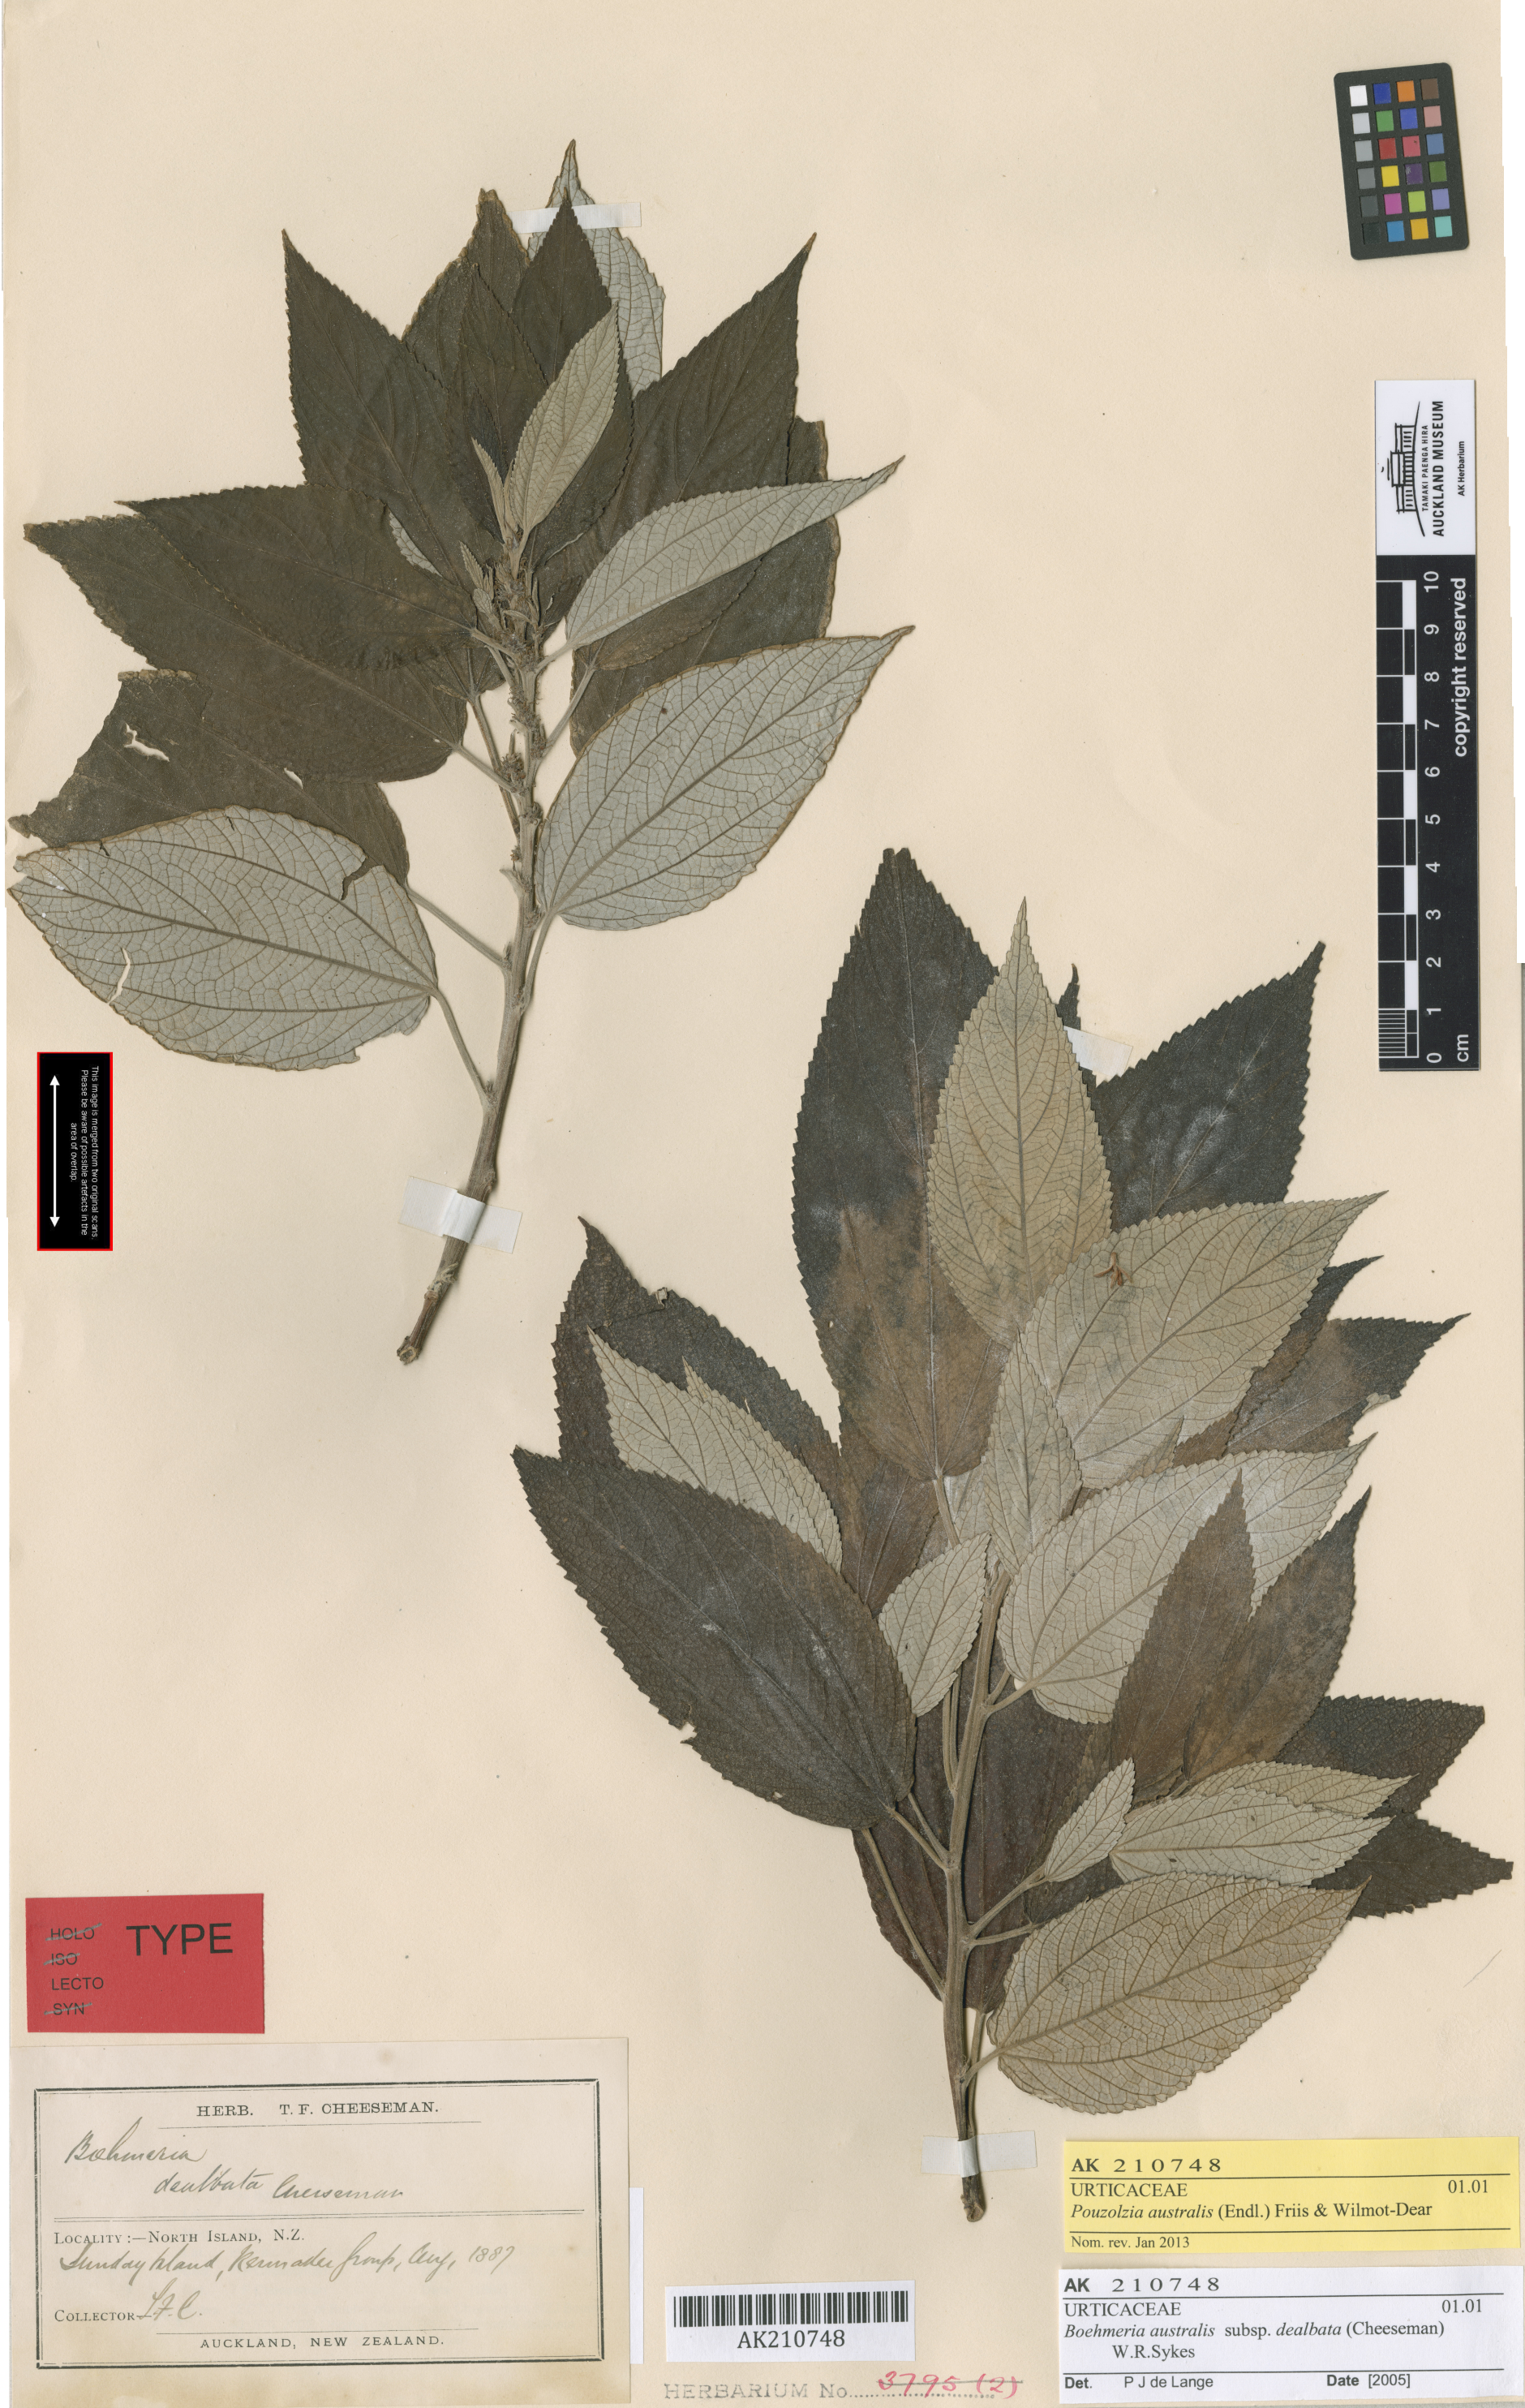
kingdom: Plantae
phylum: Tracheophyta
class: Magnoliopsida
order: Rosales
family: Urticaceae
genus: Pouzolzia
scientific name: Pouzolzia australis
